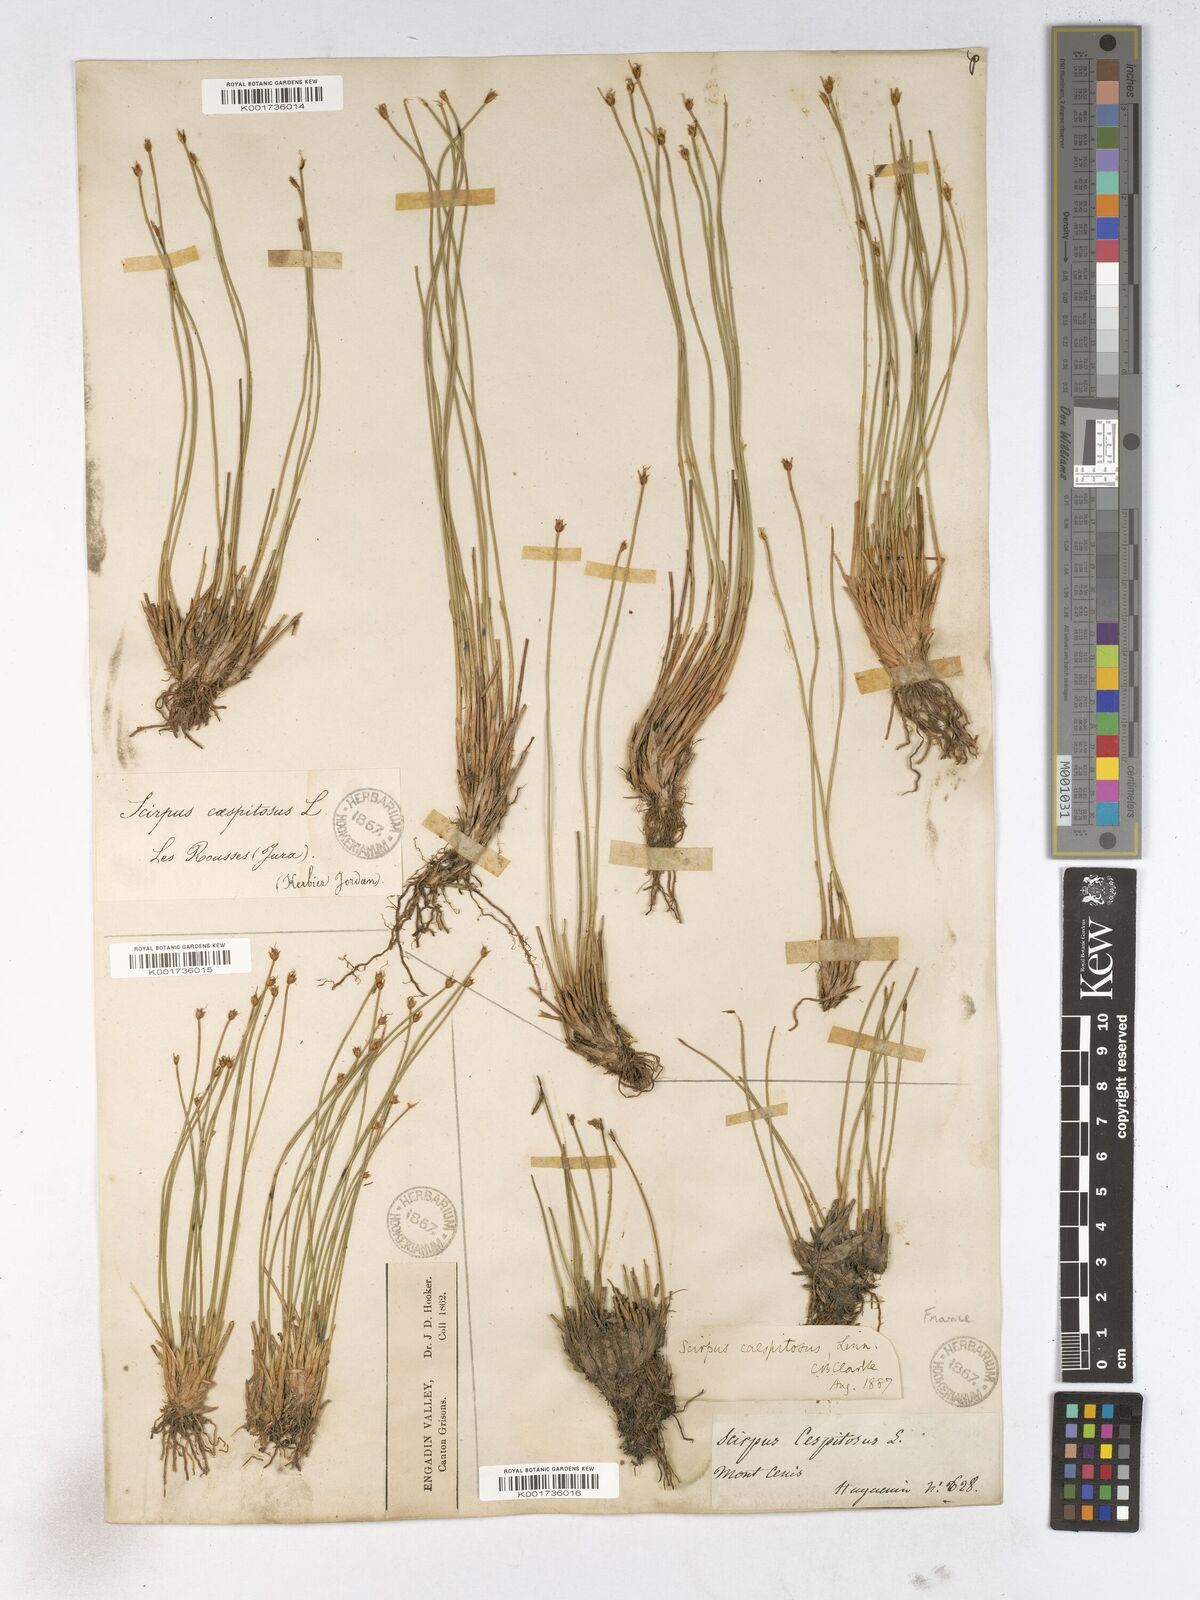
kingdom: Plantae
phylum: Tracheophyta
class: Liliopsida
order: Poales
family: Cyperaceae
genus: Trichophorum
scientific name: Trichophorum cespitosum
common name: Cespitose bulrush
